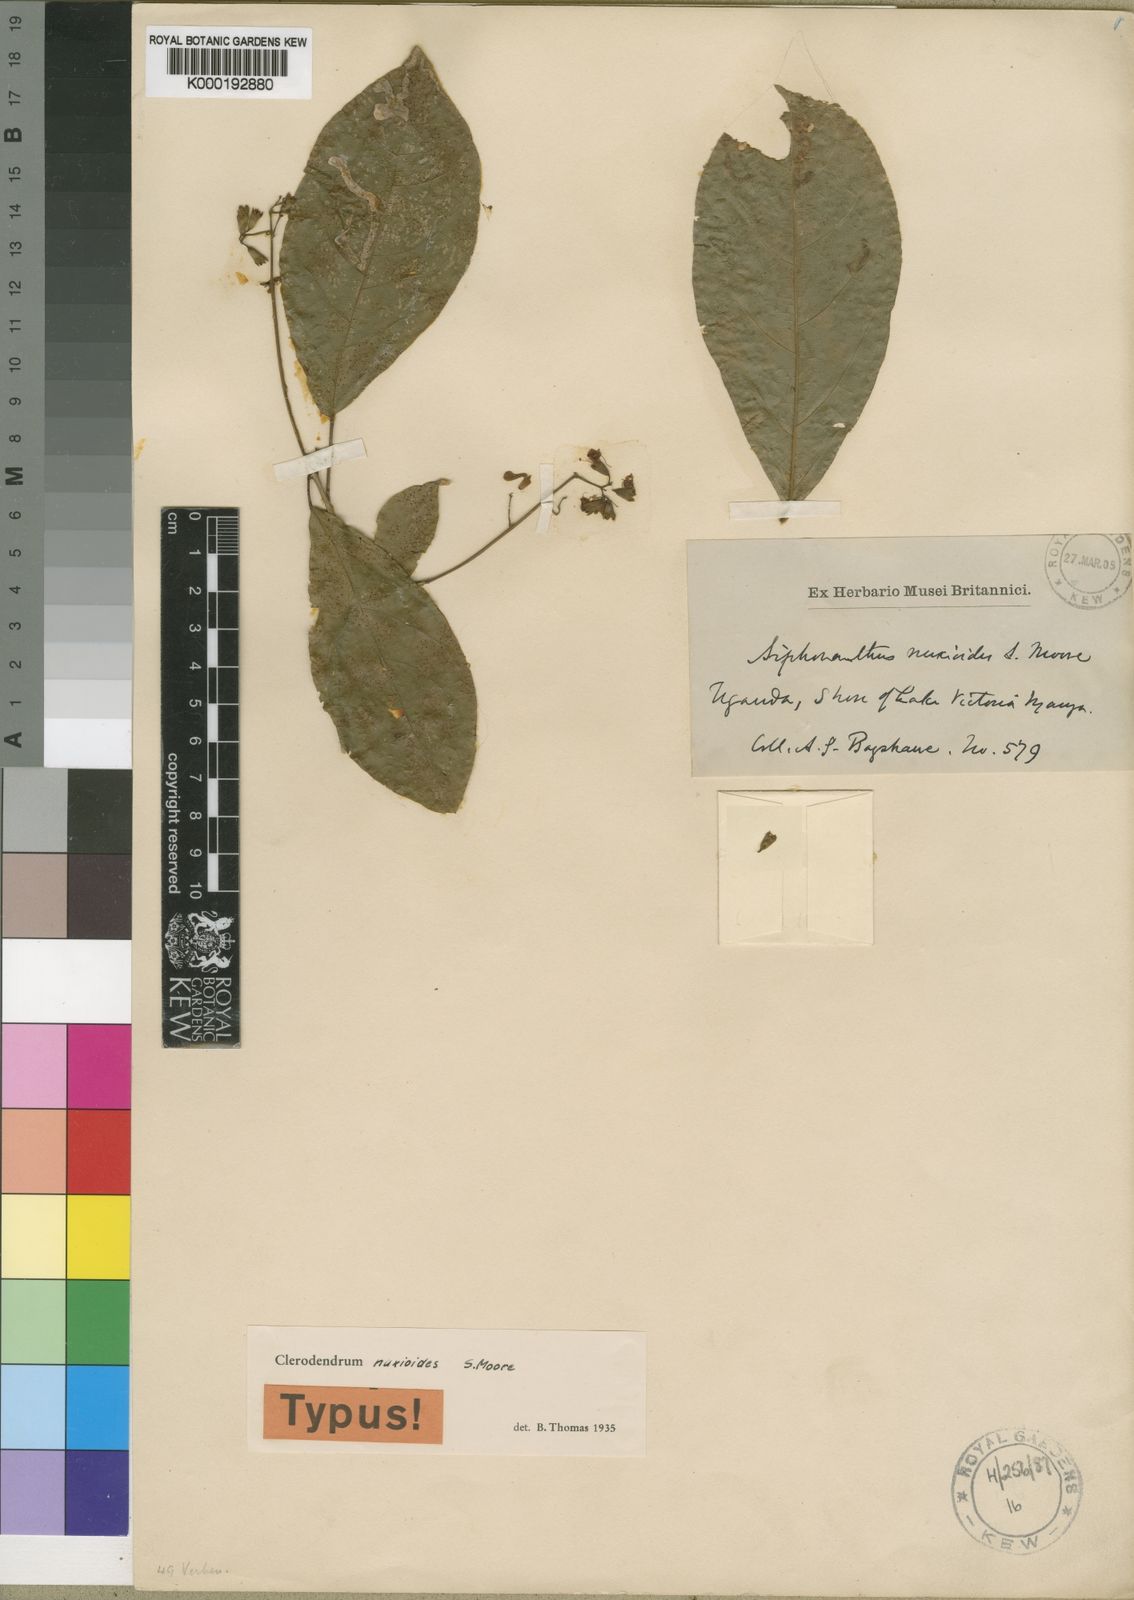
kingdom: Plantae
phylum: Tracheophyta
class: Magnoliopsida
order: Lamiales
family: Lamiaceae
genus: Clerodendrum
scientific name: Clerodendrum
